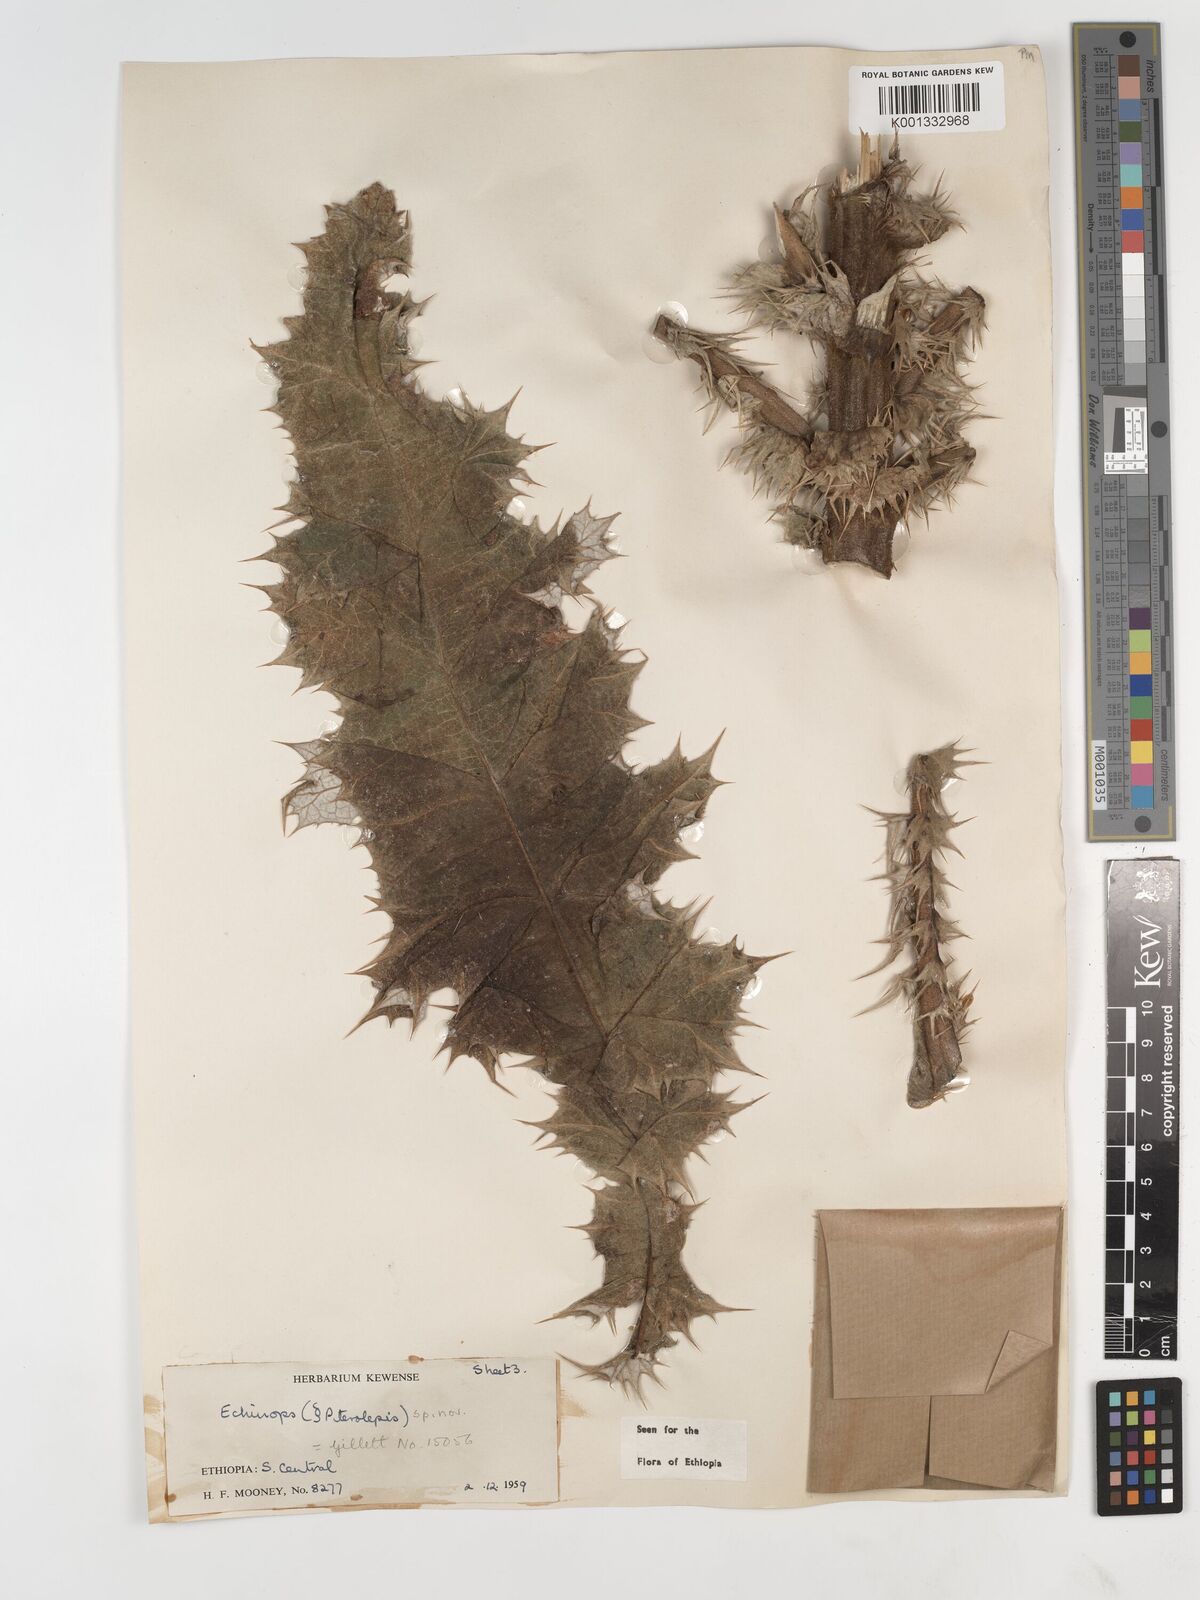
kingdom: Plantae
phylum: Tracheophyta
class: Magnoliopsida
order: Asterales
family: Asteraceae
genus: Echinops
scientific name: Echinops longisetus
